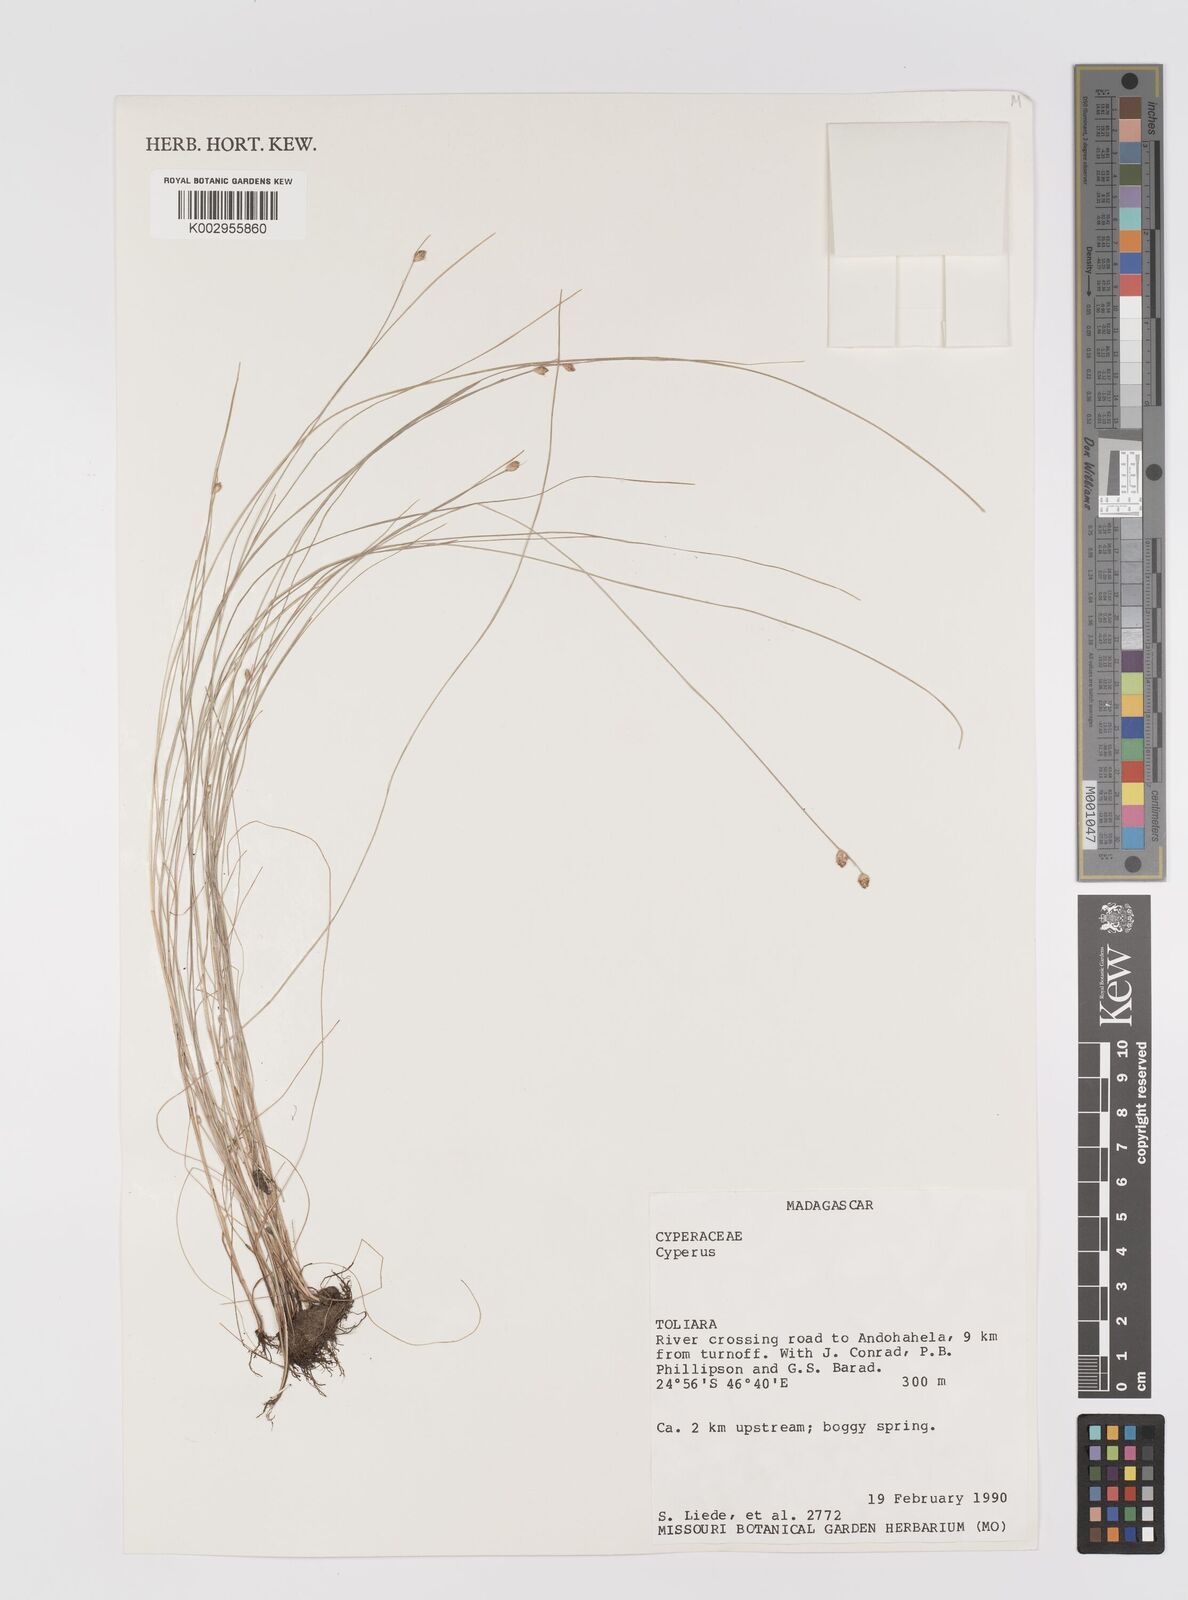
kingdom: Plantae
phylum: Tracheophyta
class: Liliopsida
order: Poales
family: Cyperaceae
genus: Cyperus
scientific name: Cyperus
